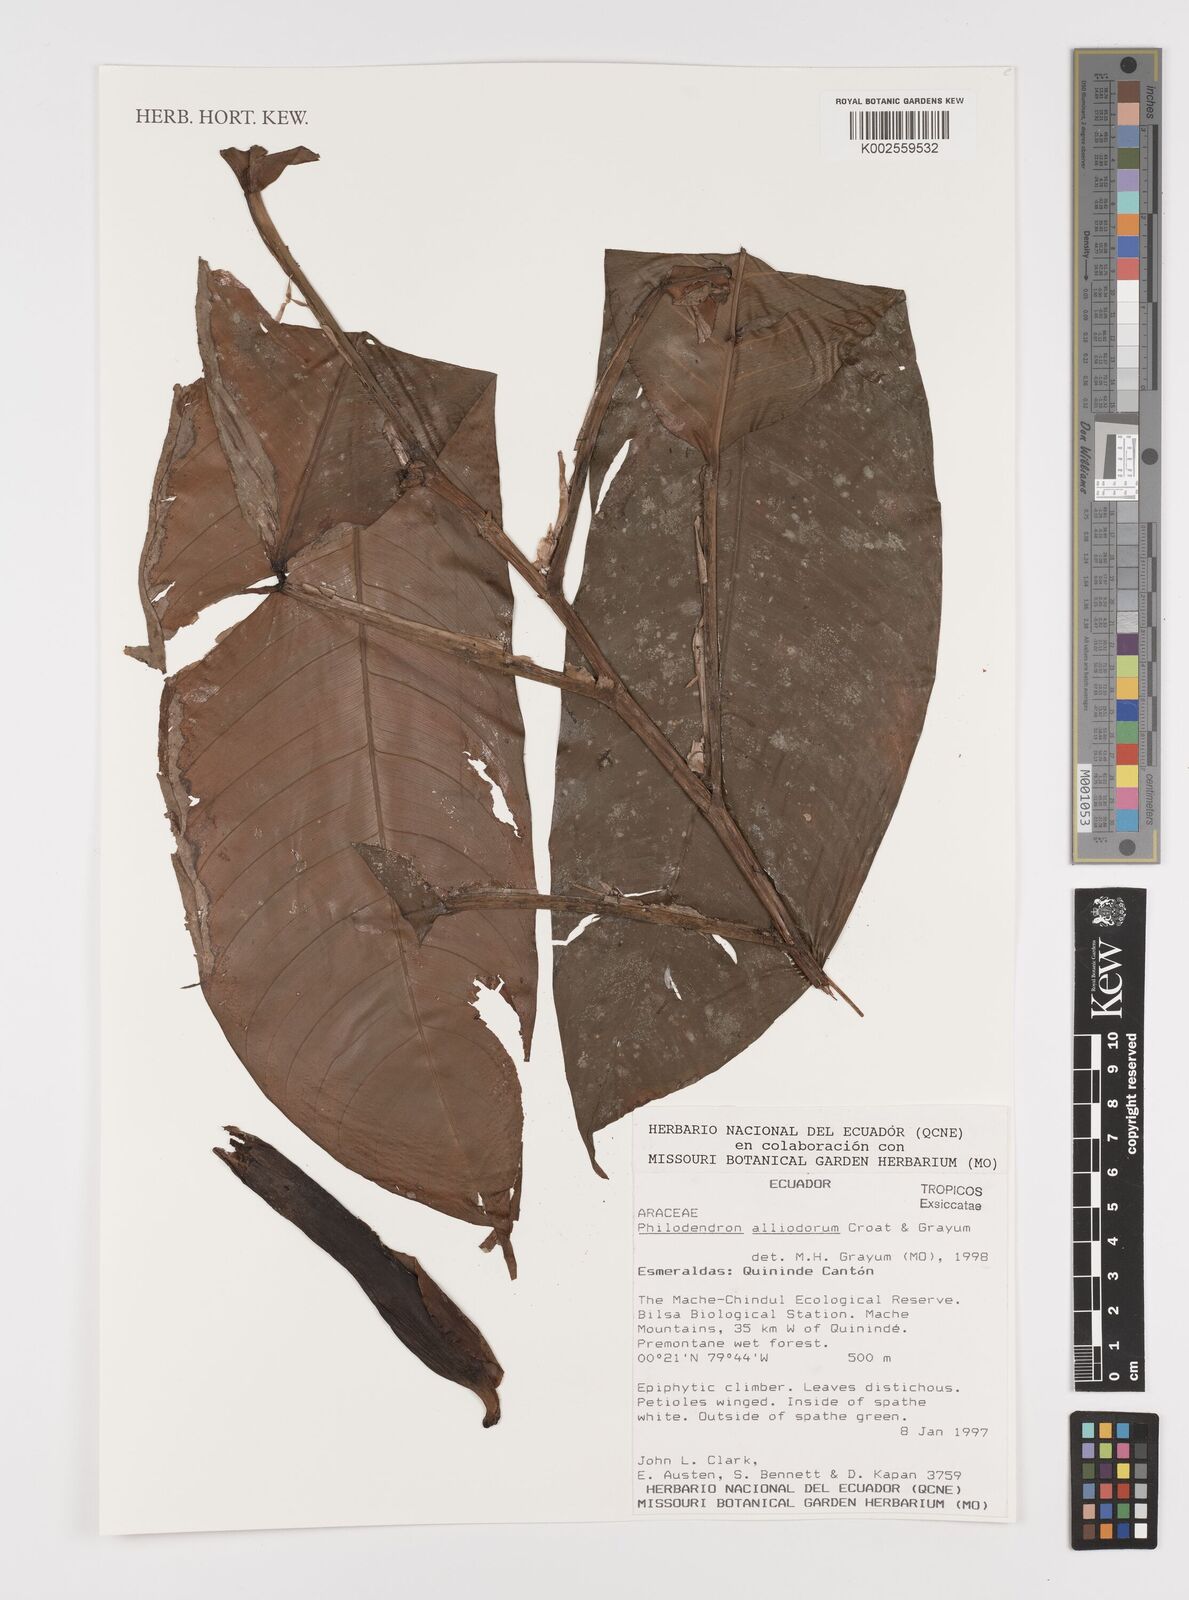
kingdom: Plantae
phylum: Tracheophyta
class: Liliopsida
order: Alismatales
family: Araceae
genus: Philodendron
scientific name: Philodendron alliodorum
